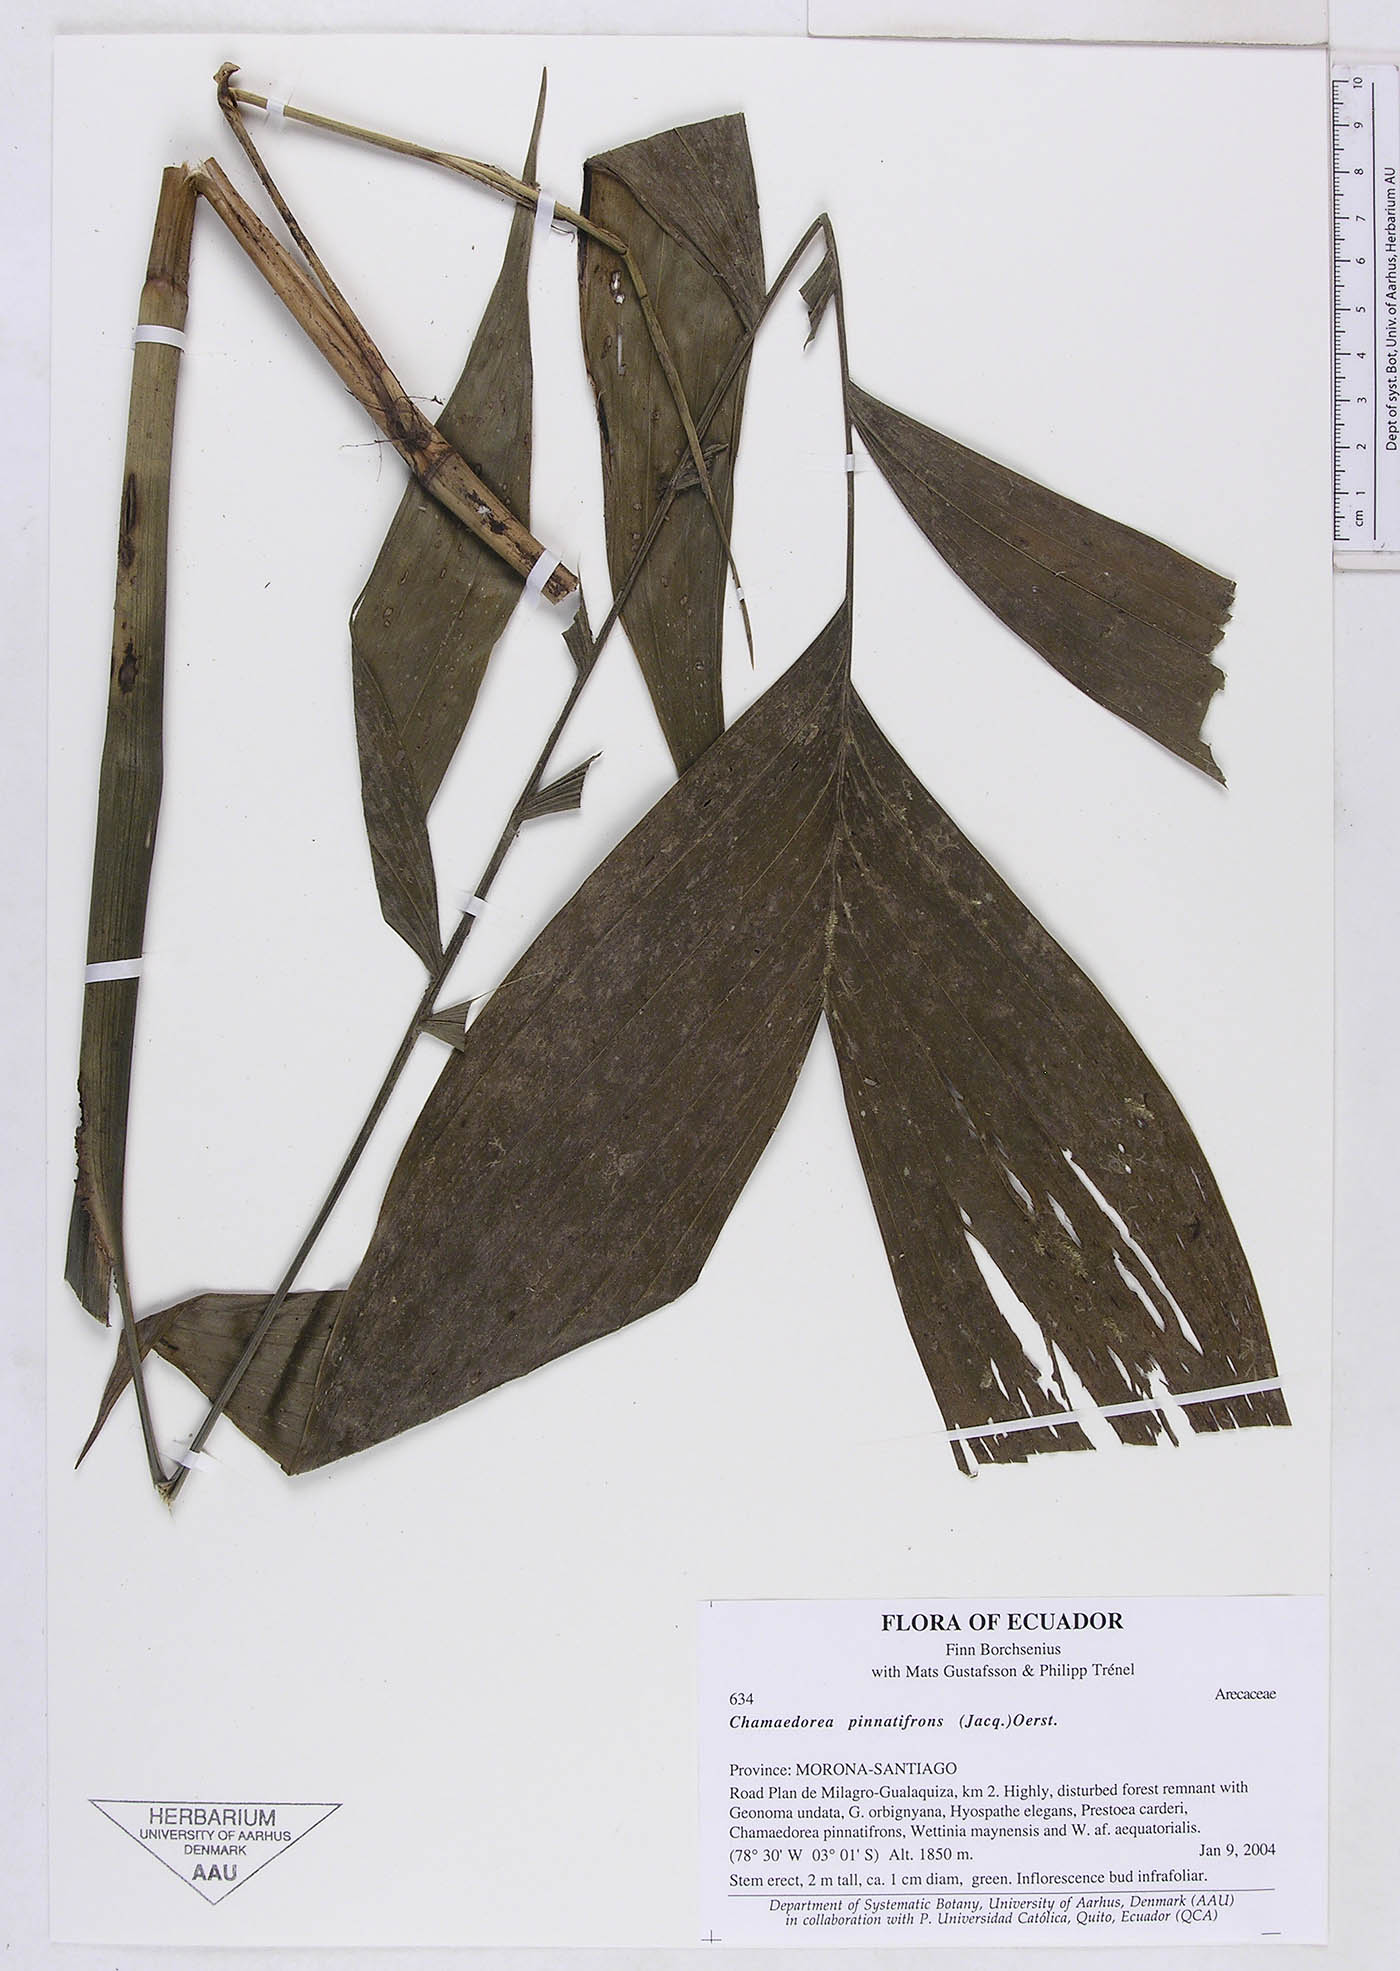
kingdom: Plantae
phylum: Tracheophyta
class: Liliopsida
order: Arecales
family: Arecaceae
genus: Chamaedorea
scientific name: Chamaedorea pinnatifrons
